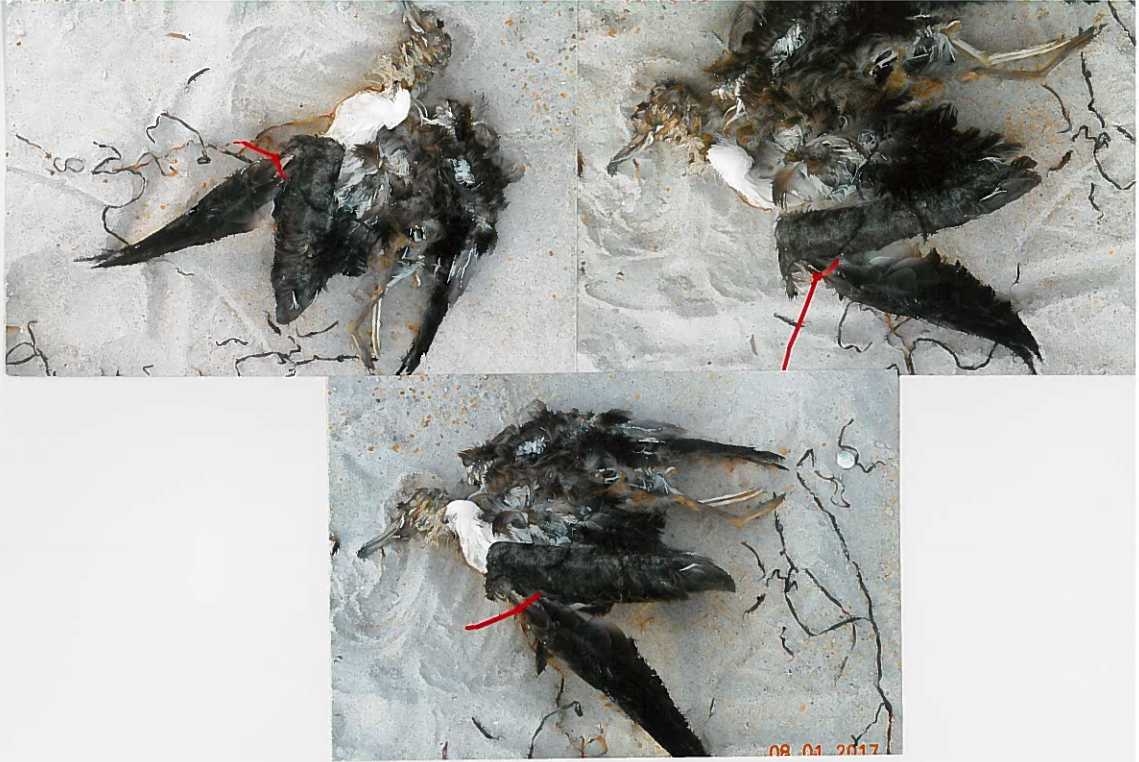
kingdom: Animalia
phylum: Chordata
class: Aves
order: Charadriiformes
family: Laridae
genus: Larus
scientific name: Larus marinus
